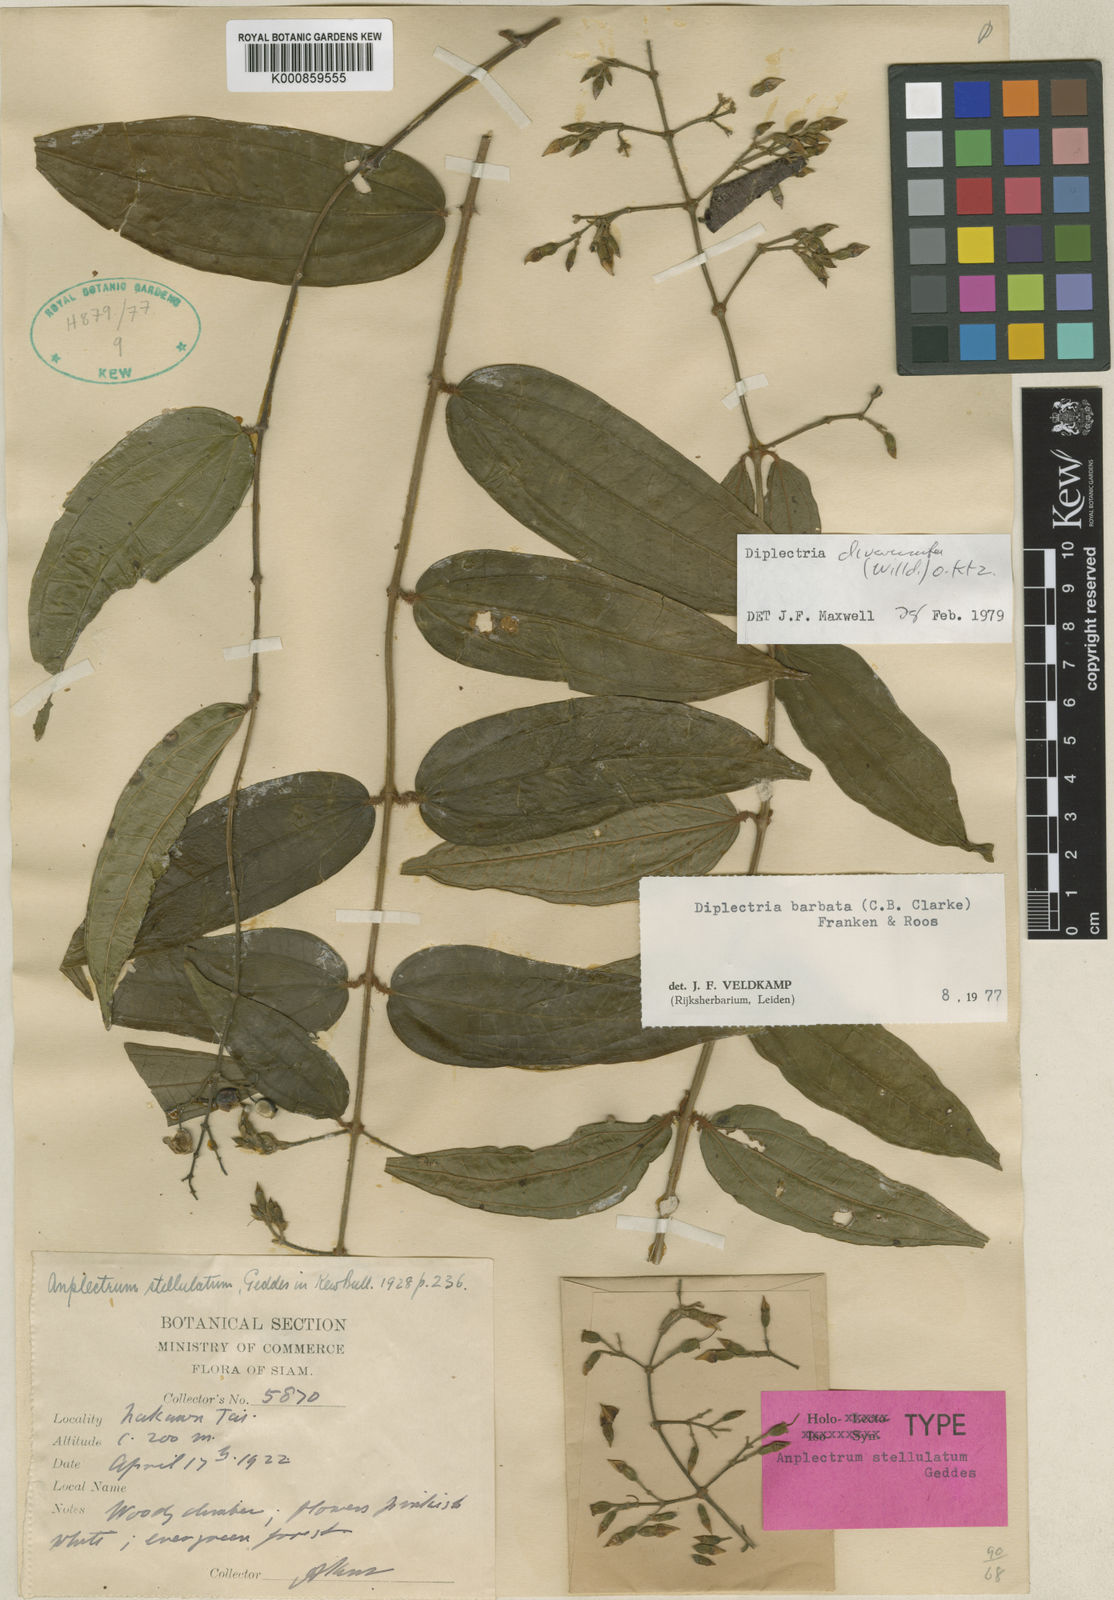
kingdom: Plantae
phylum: Tracheophyta
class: Magnoliopsida
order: Myrtales
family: Melastomataceae
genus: Diplectria
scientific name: Diplectria divaricata
